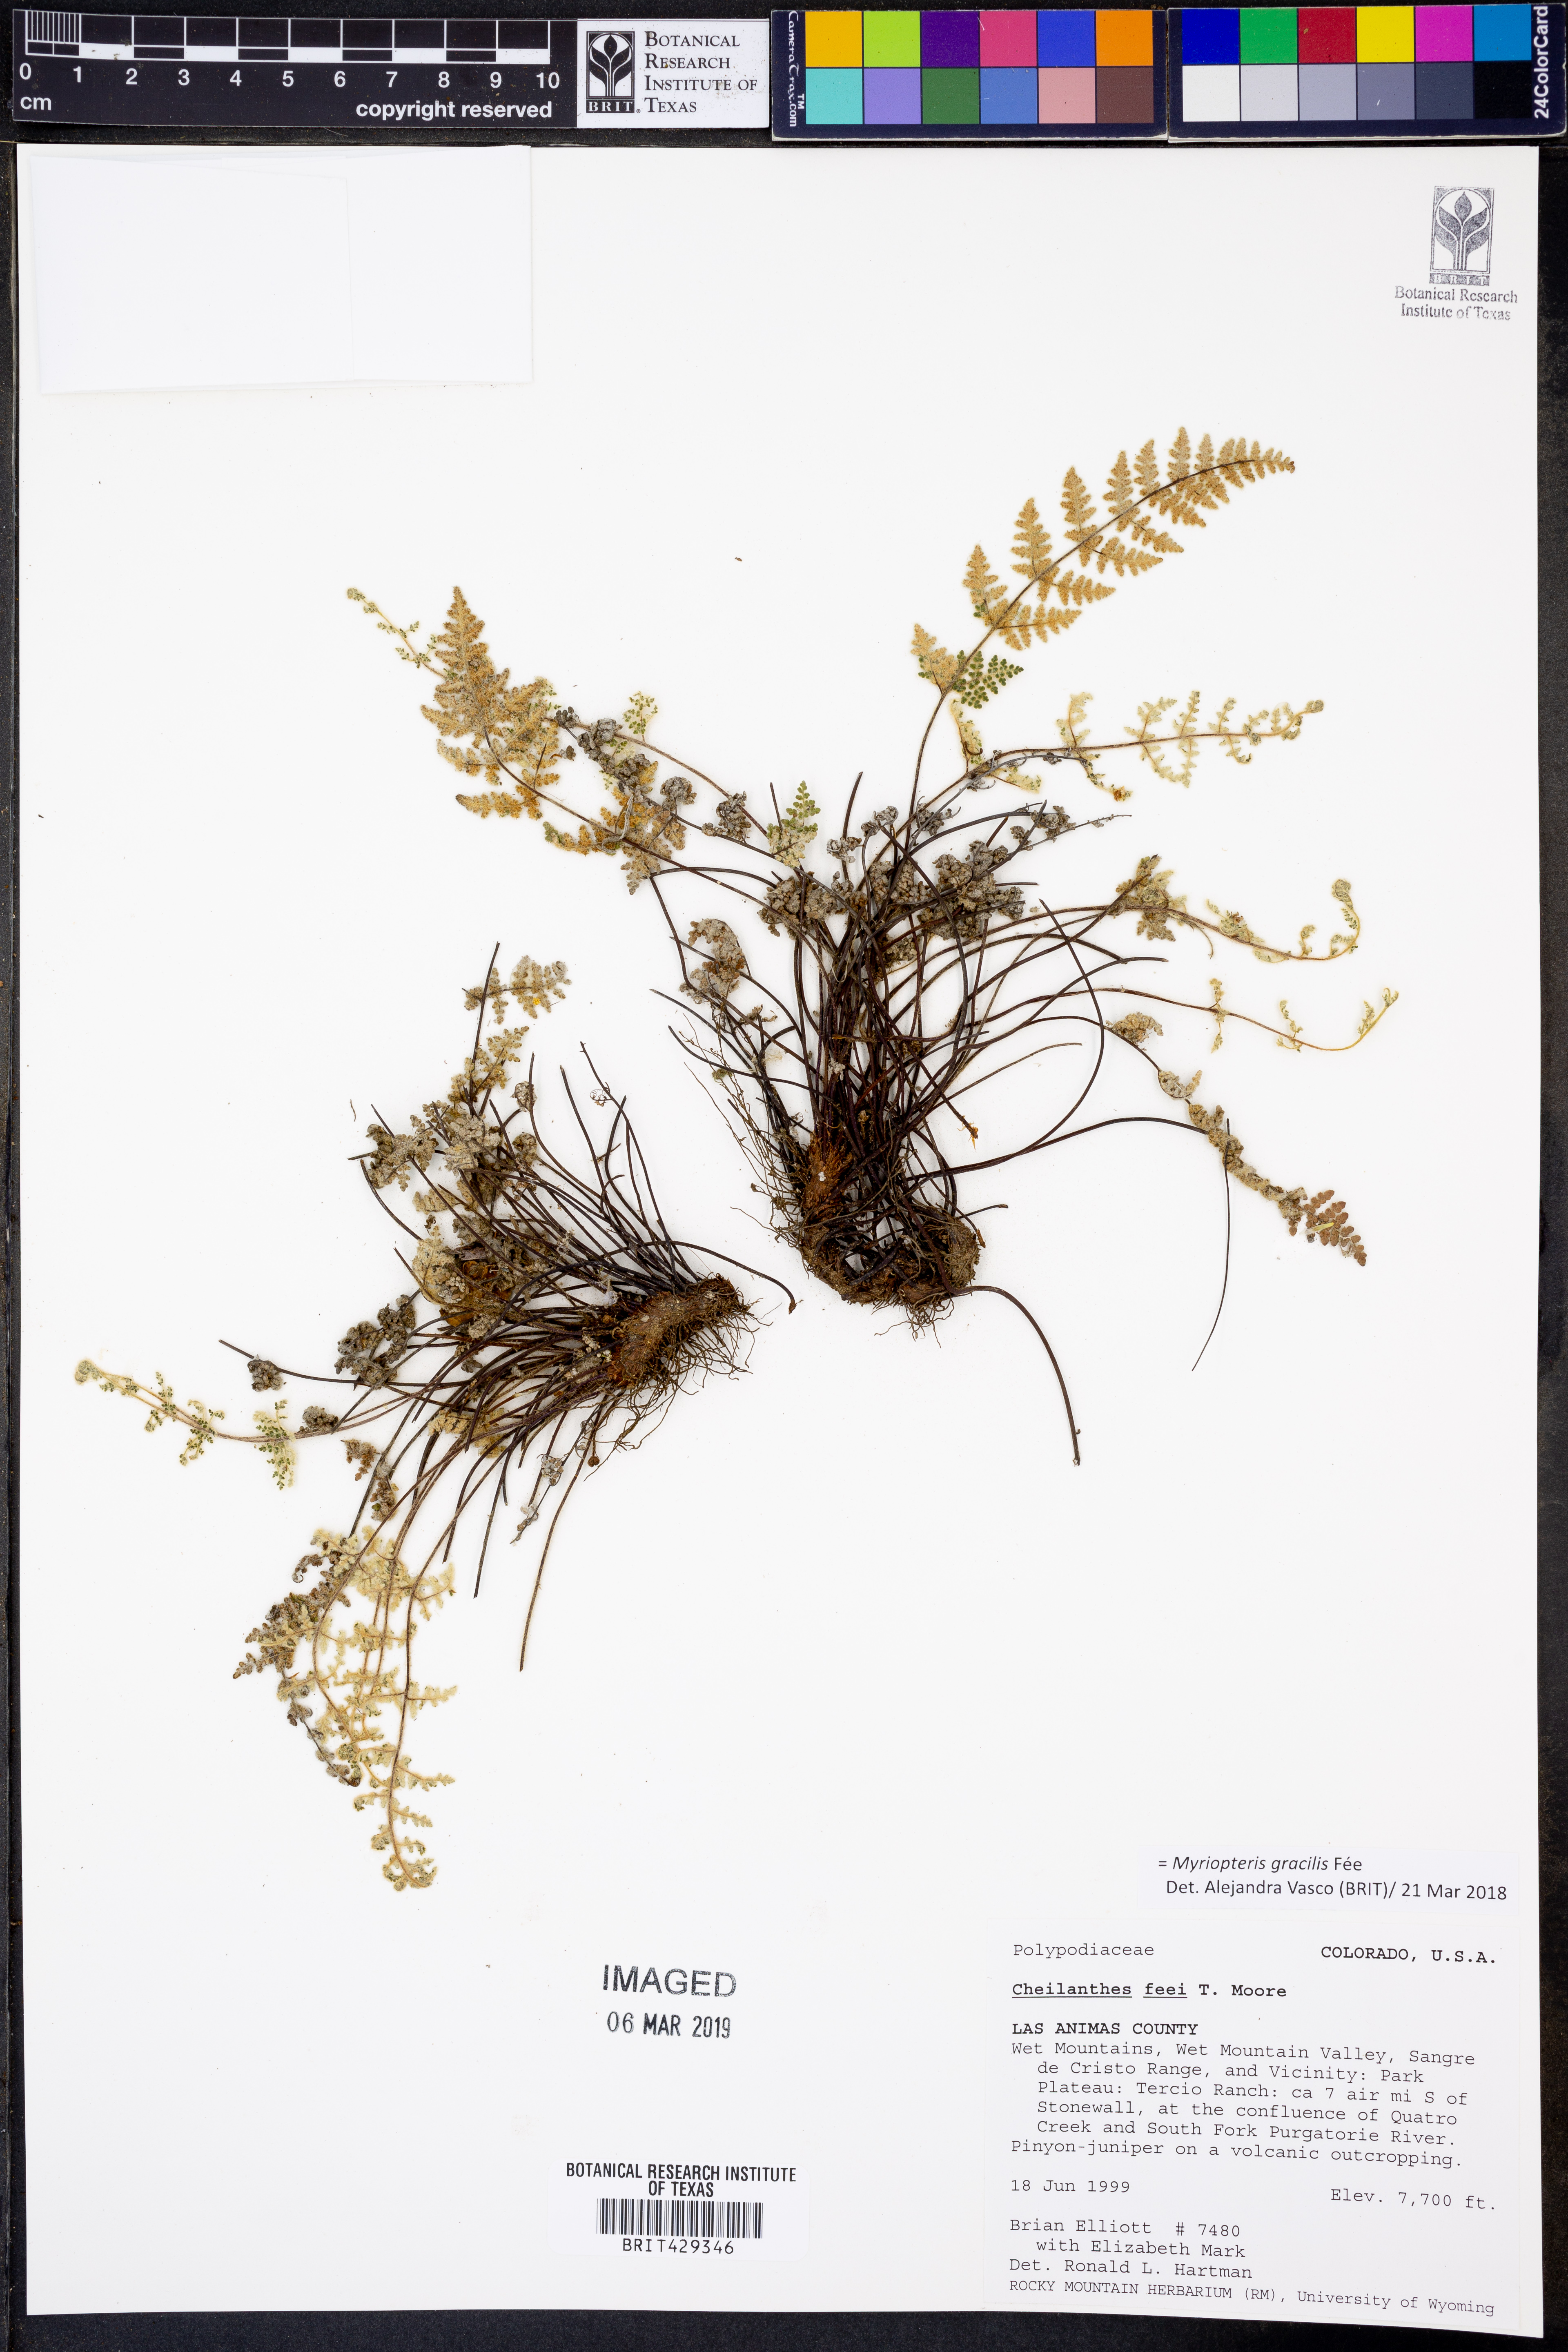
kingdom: Plantae
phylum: Tracheophyta
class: Polypodiopsida
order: Polypodiales
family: Pteridaceae
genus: Myriopteris
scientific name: Myriopteris gracilis
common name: Fee's lip fern
